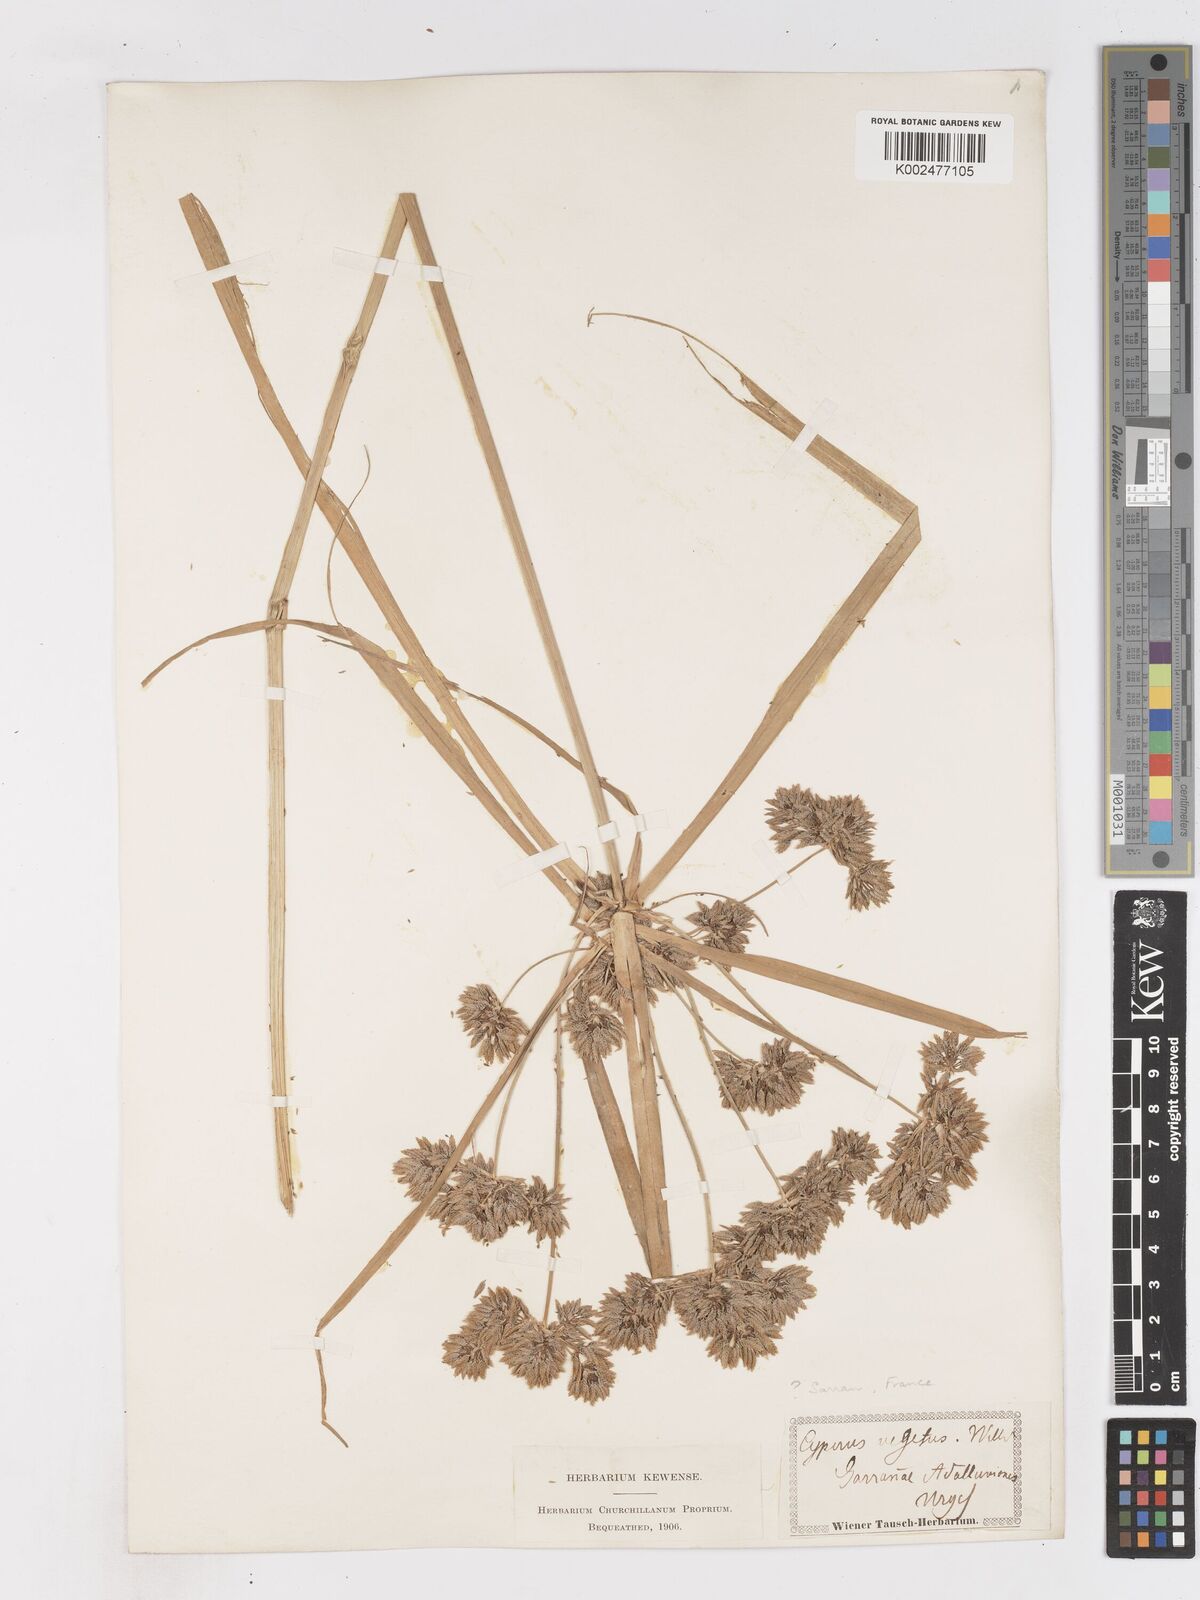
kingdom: Plantae
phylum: Tracheophyta
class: Liliopsida
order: Poales
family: Cyperaceae
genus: Cyperus
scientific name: Cyperus eragrostis
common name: Tall flatsedge
